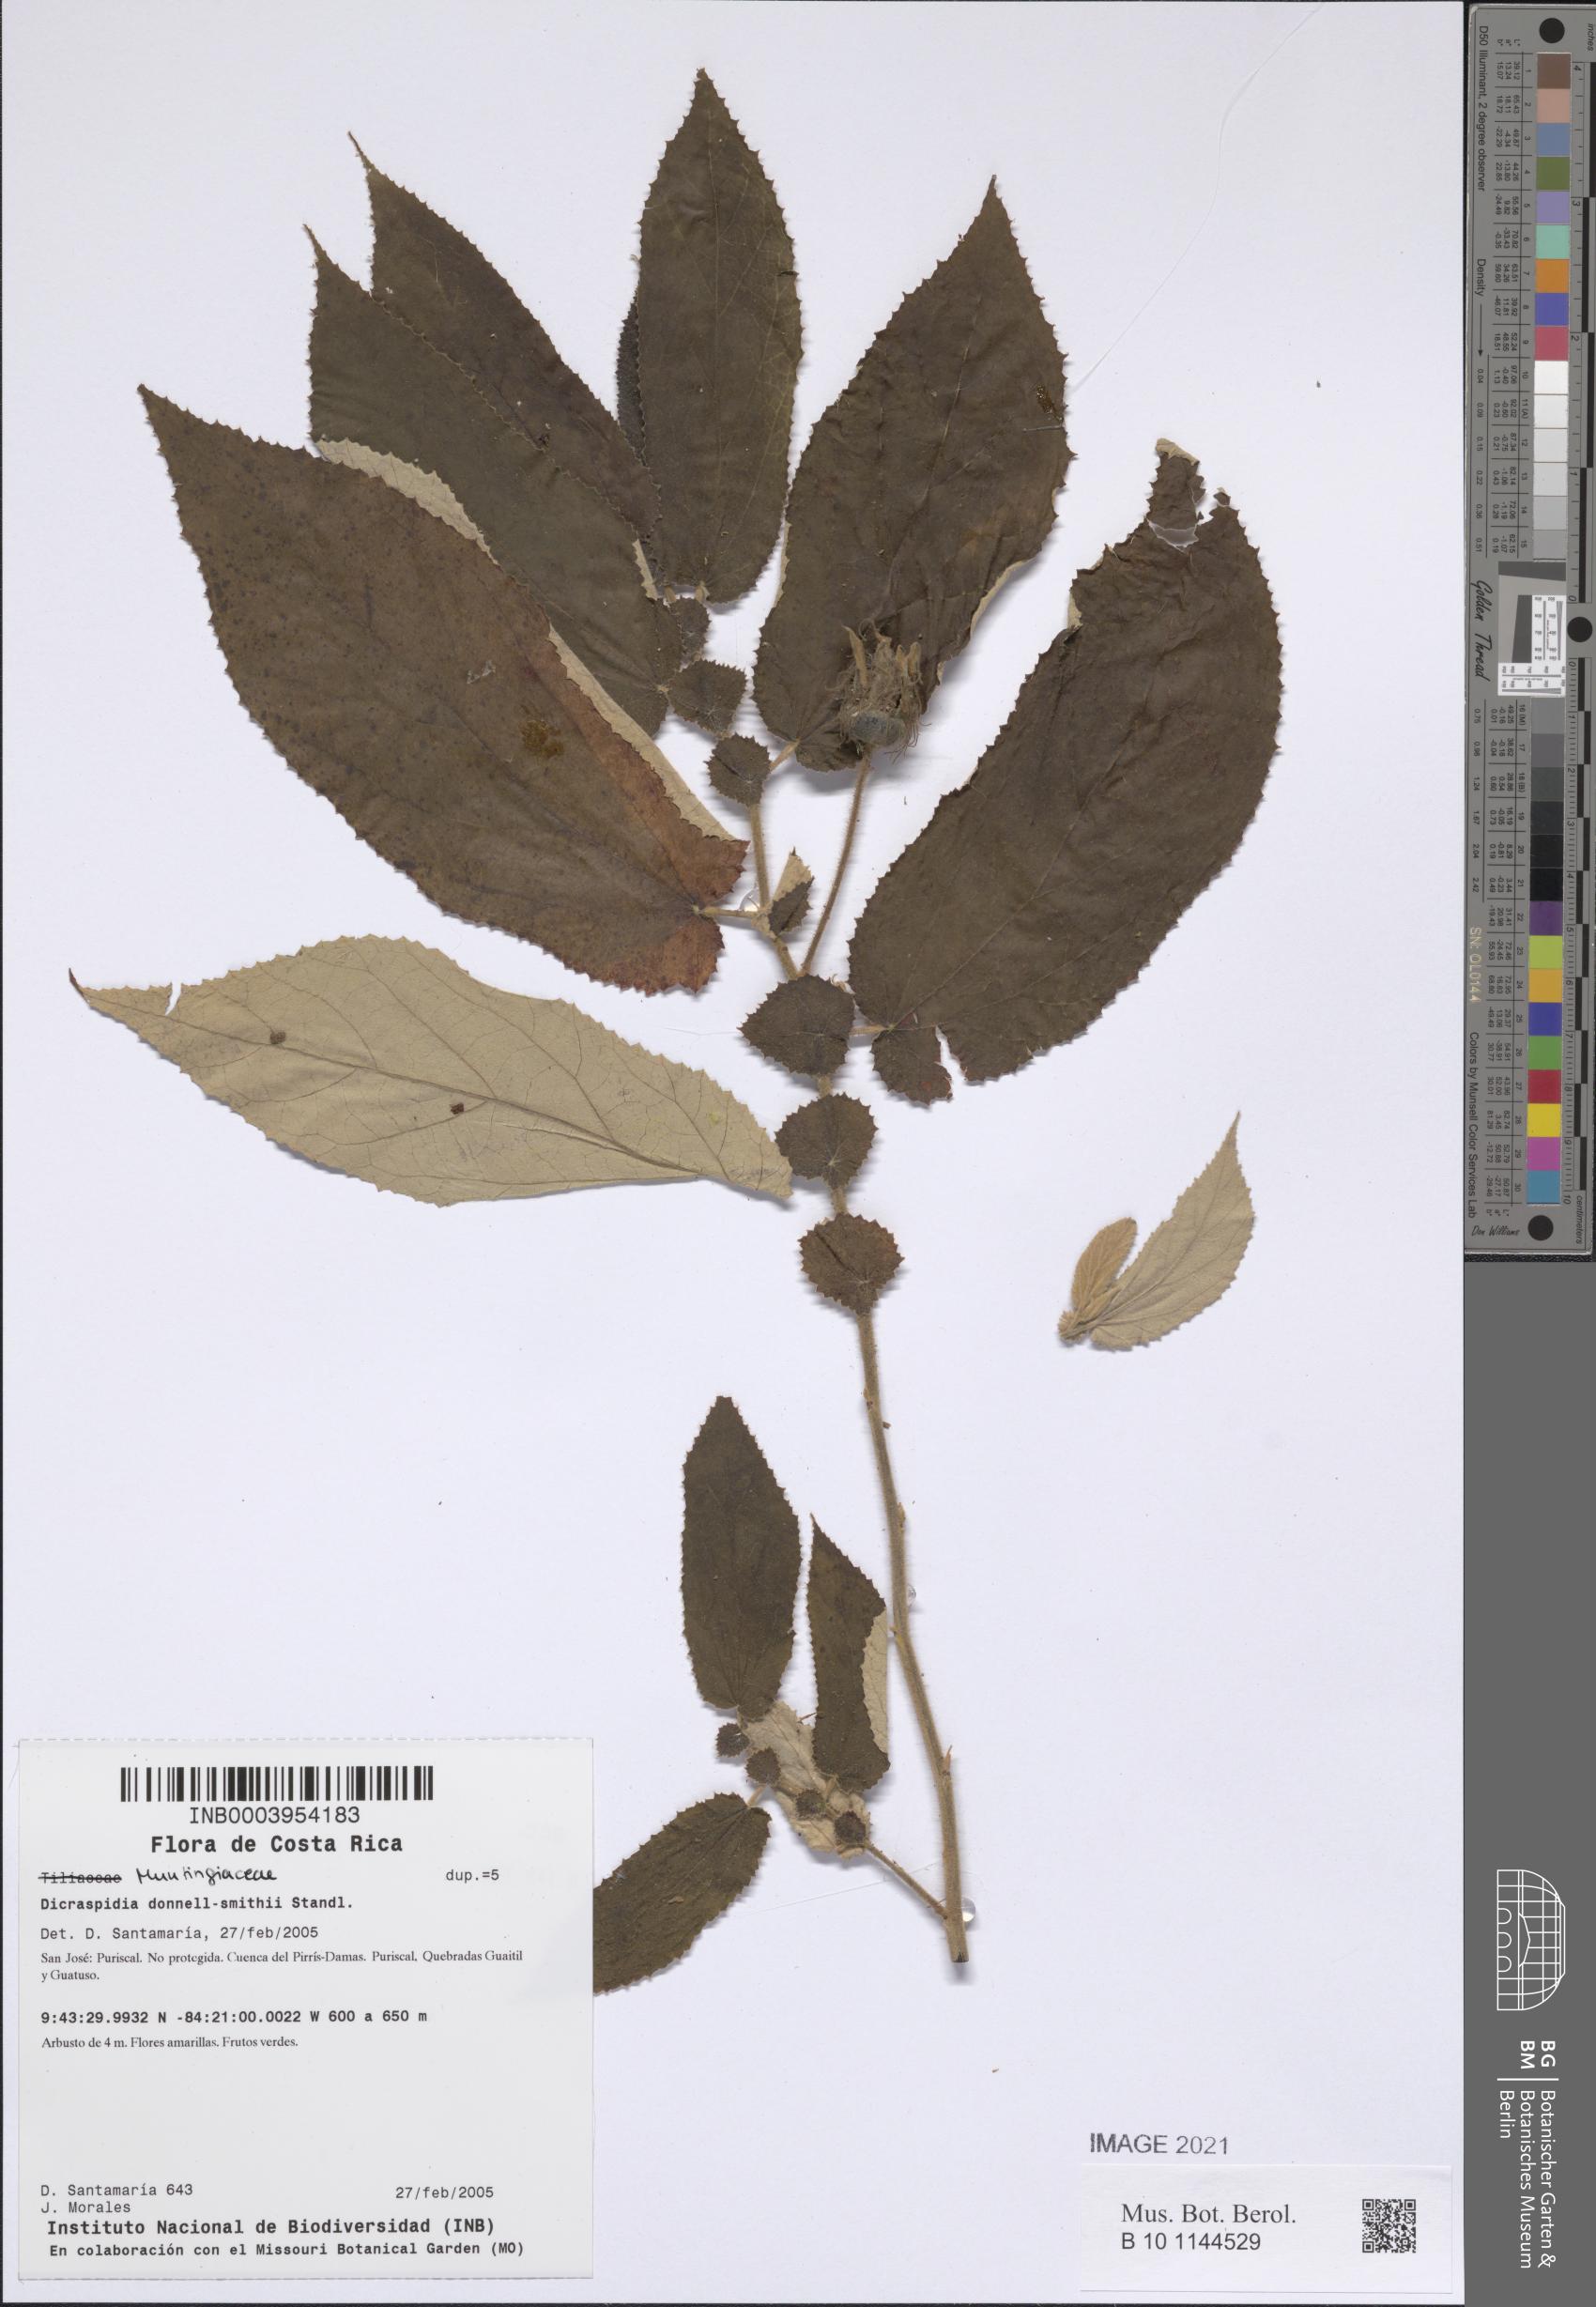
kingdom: Plantae
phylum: Tracheophyta
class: Magnoliopsida
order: Malvales
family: Muntingiaceae
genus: Dicraspidia
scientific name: Dicraspidia donnell-smithii
